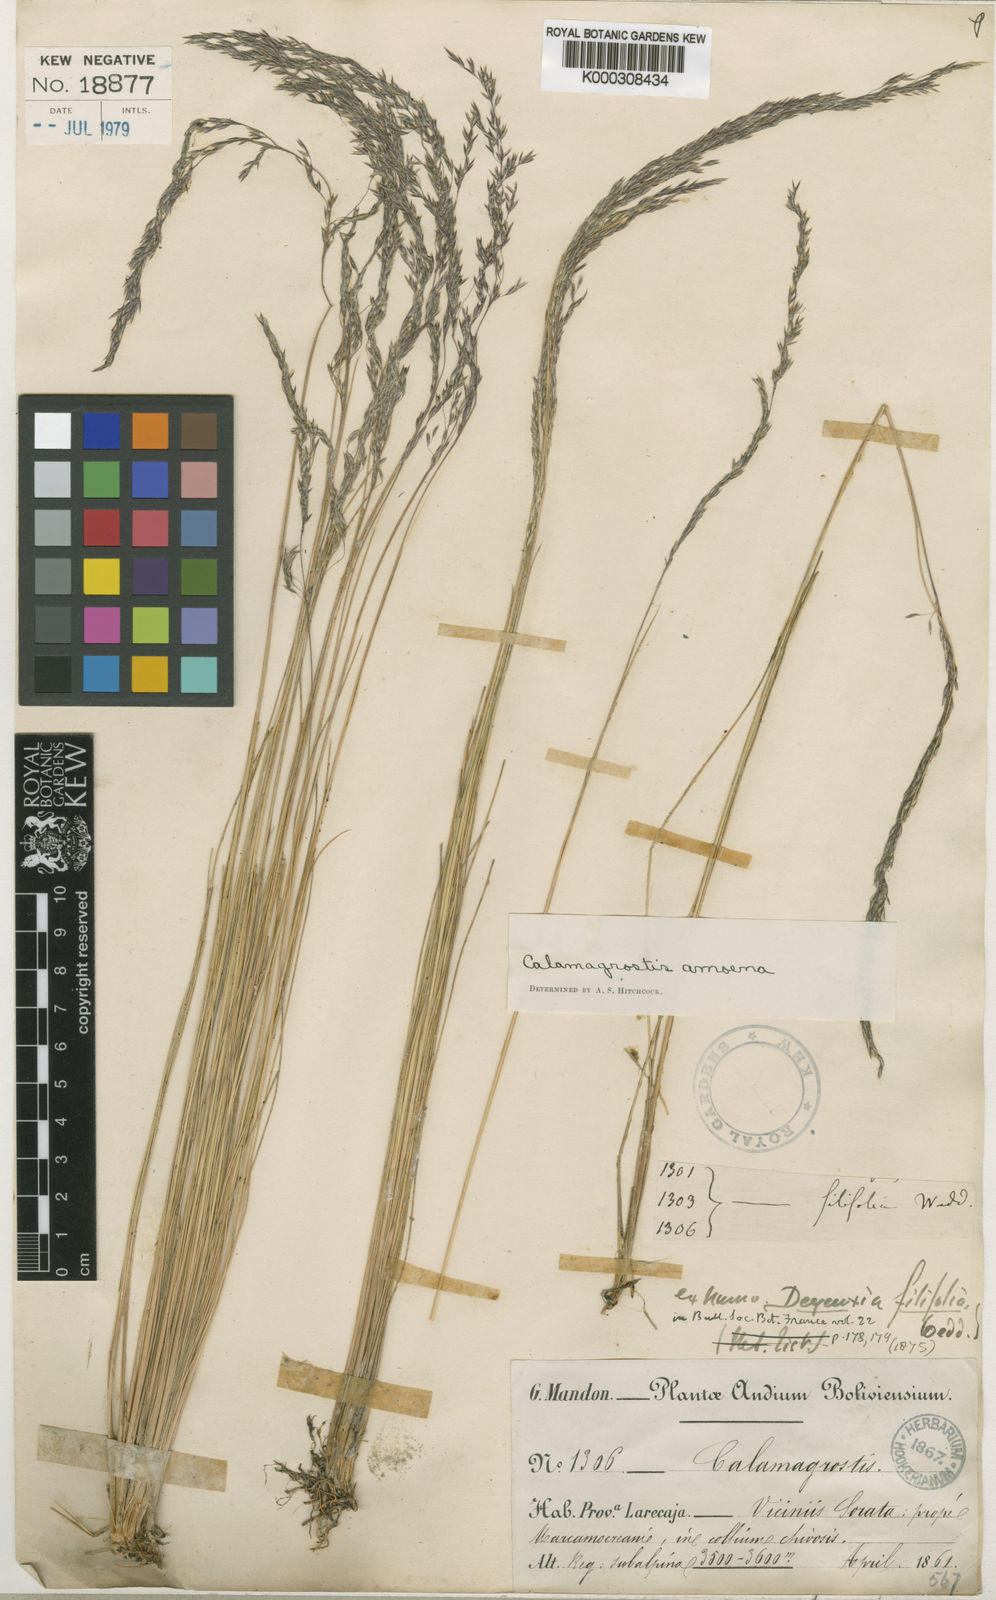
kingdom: Plantae
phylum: Tracheophyta
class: Liliopsida
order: Poales
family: Poaceae
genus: Cinnagrostis
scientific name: Cinnagrostis filifolia
